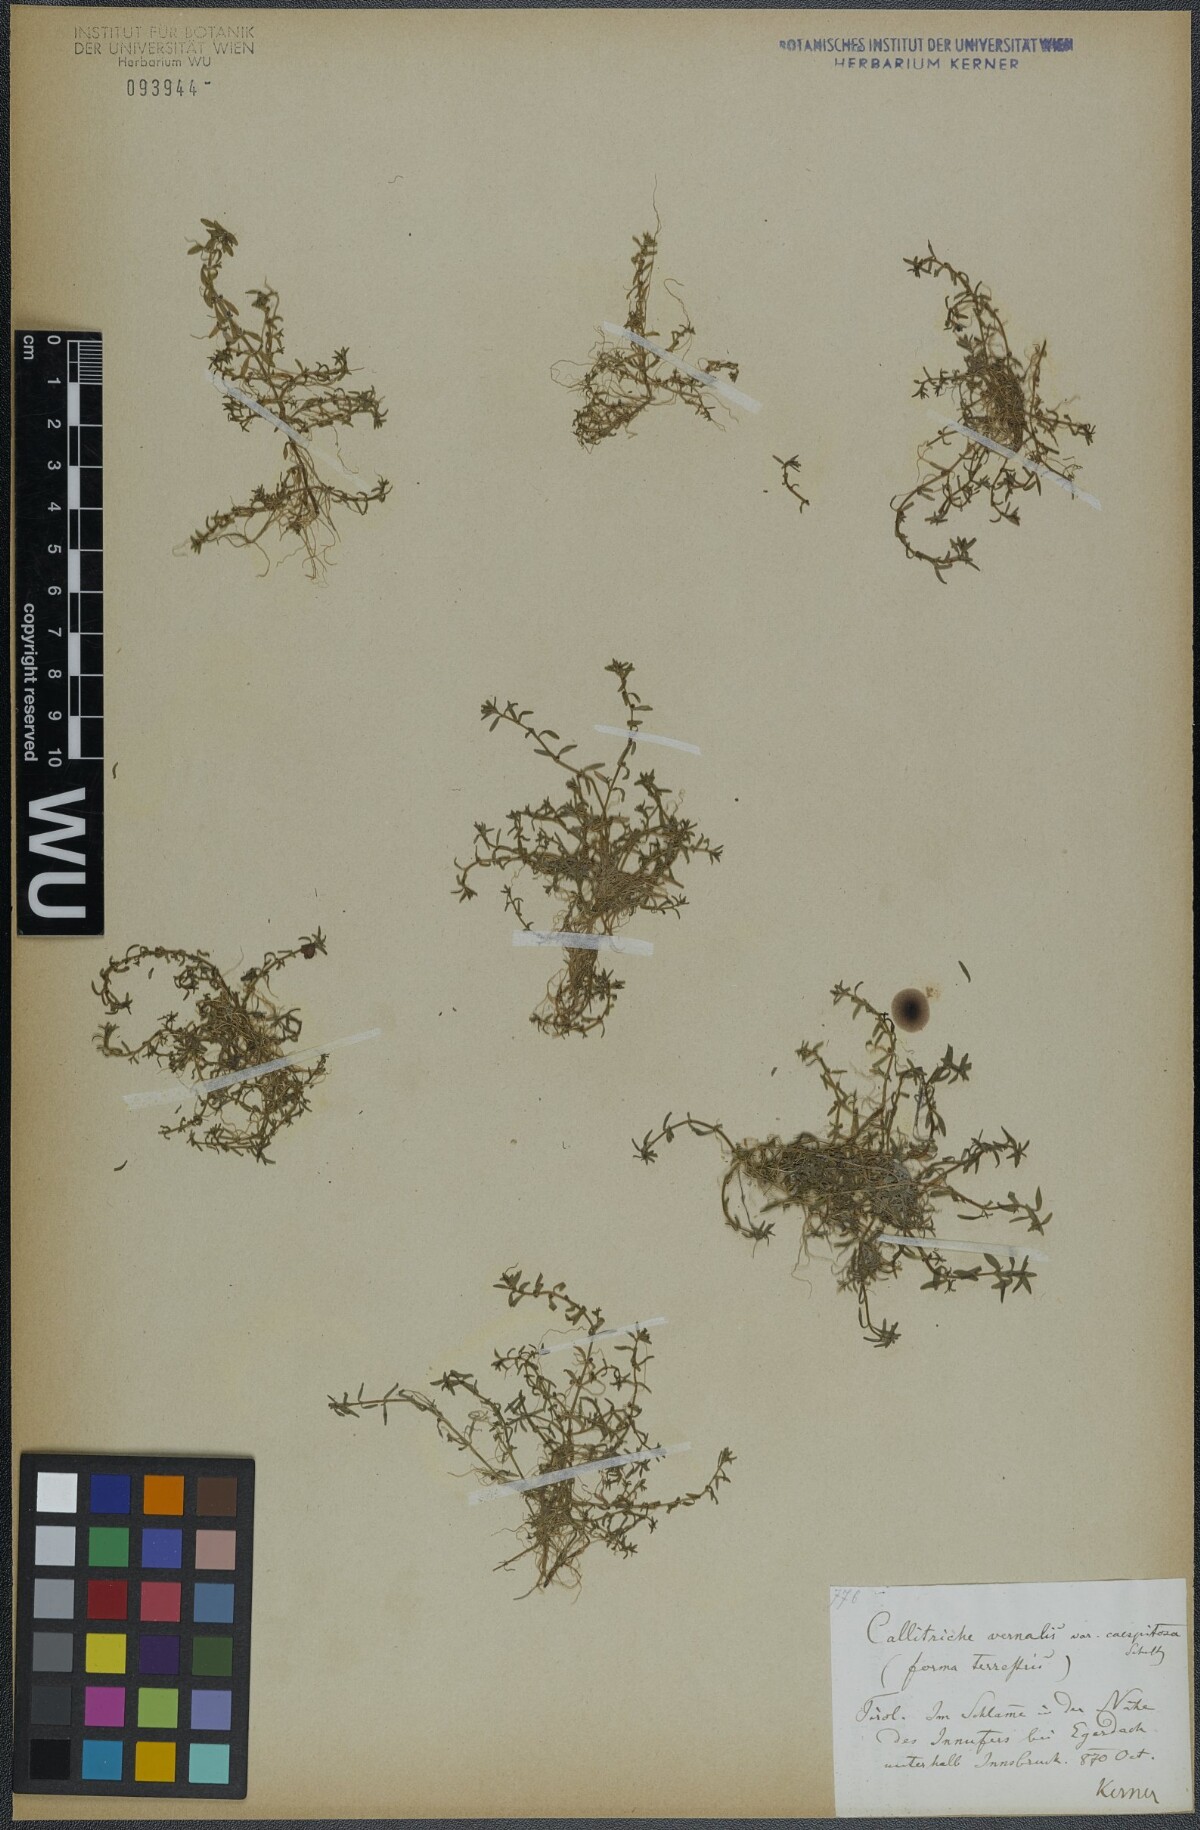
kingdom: Plantae
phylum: Tracheophyta
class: Magnoliopsida
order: Lamiales
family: Plantaginaceae
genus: Callitriche
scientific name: Callitriche palustris
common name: Spring water-starwort
